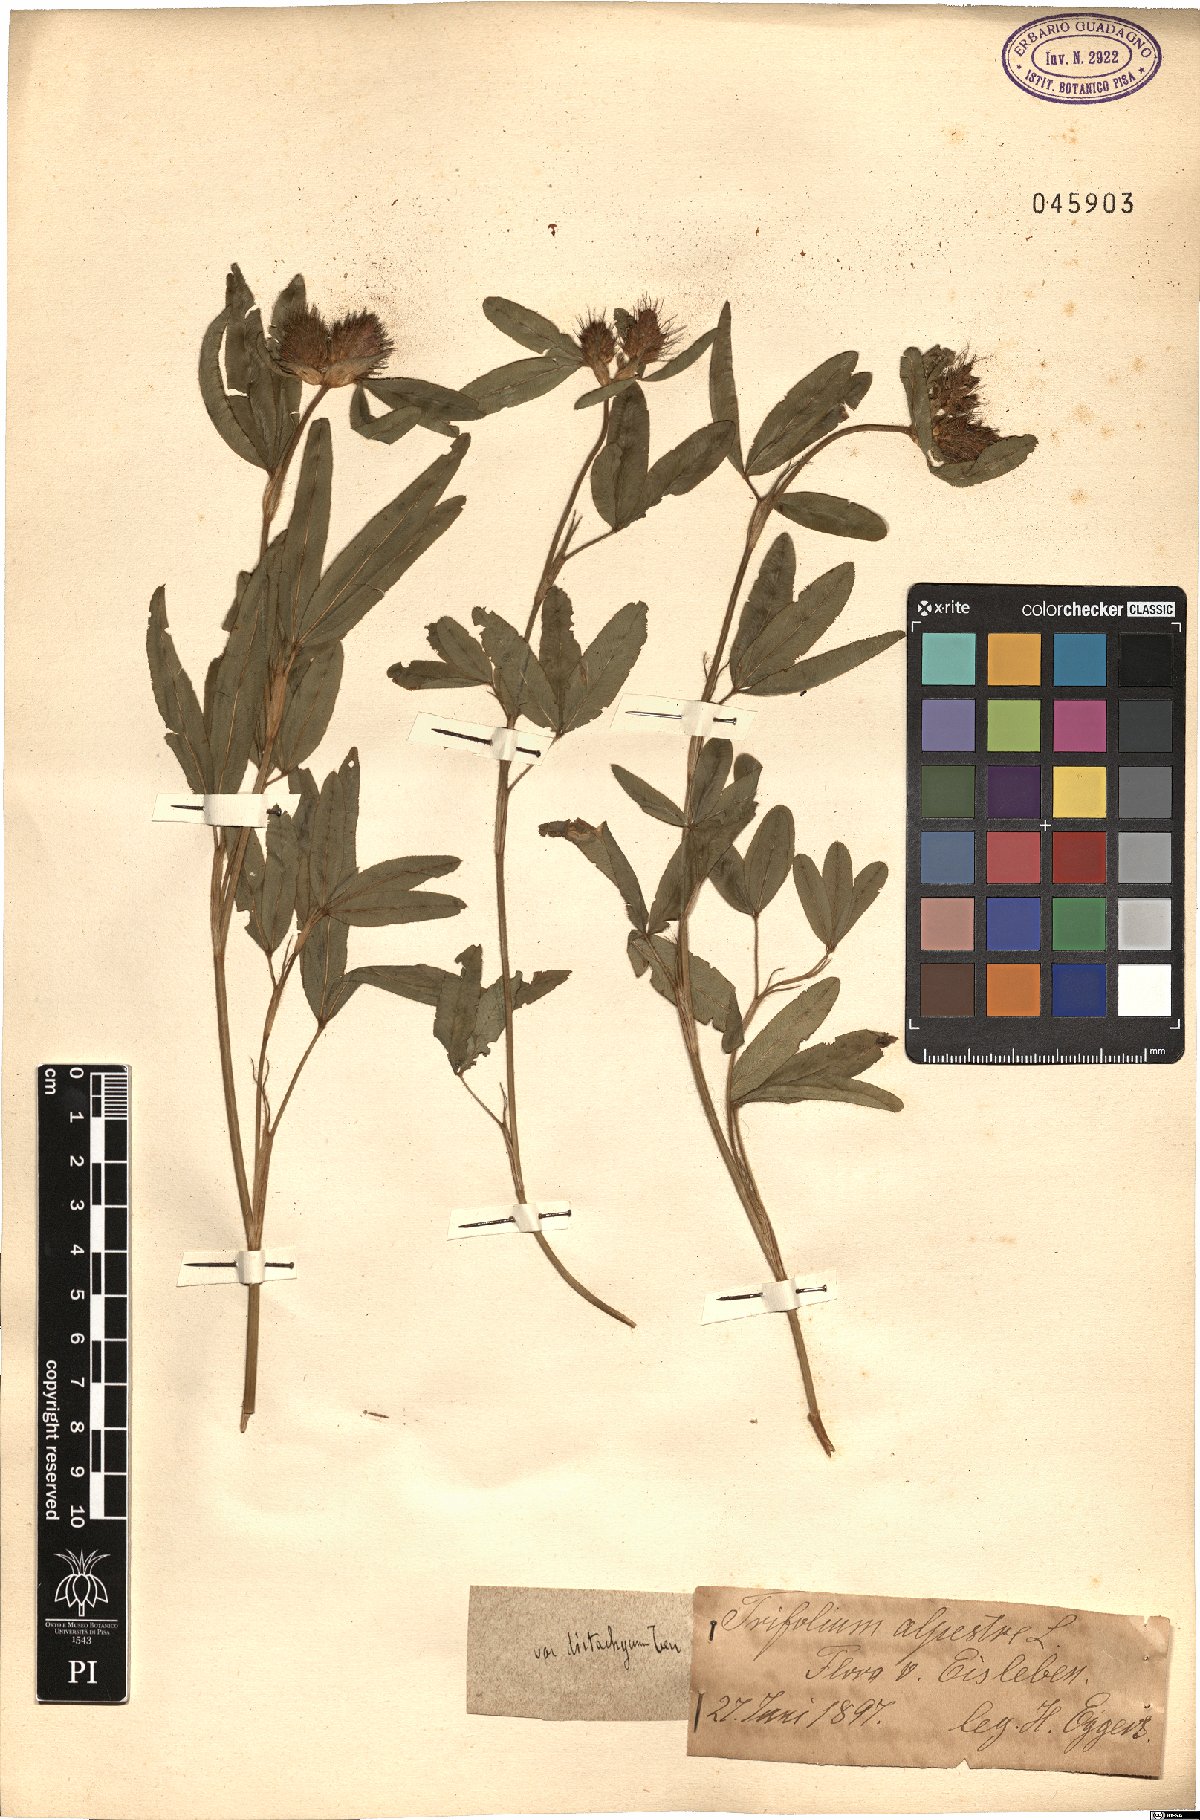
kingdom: Plantae
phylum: Tracheophyta
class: Magnoliopsida
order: Fabales
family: Fabaceae
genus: Trifolium
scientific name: Trifolium alpestre
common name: Owl-head clover
